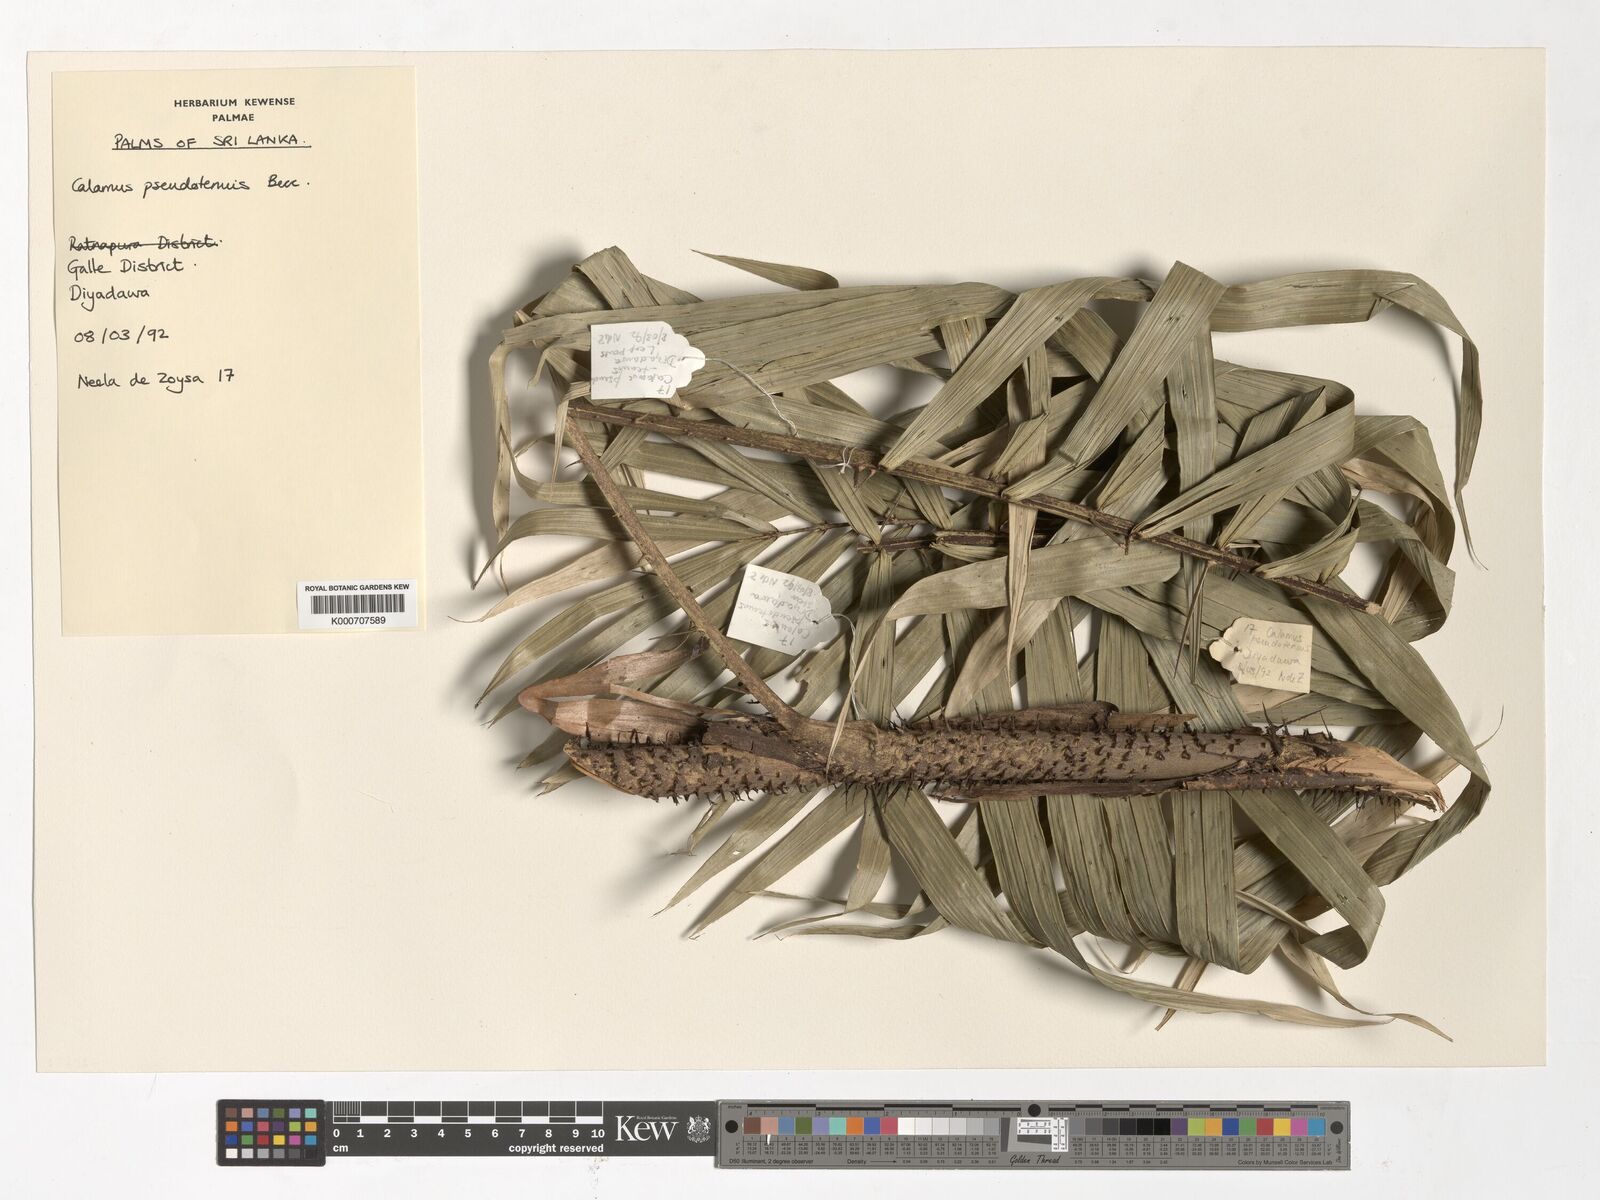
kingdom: Plantae
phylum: Tracheophyta
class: Liliopsida
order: Arecales
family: Arecaceae
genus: Calamus
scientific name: Calamus pseudotenuis
